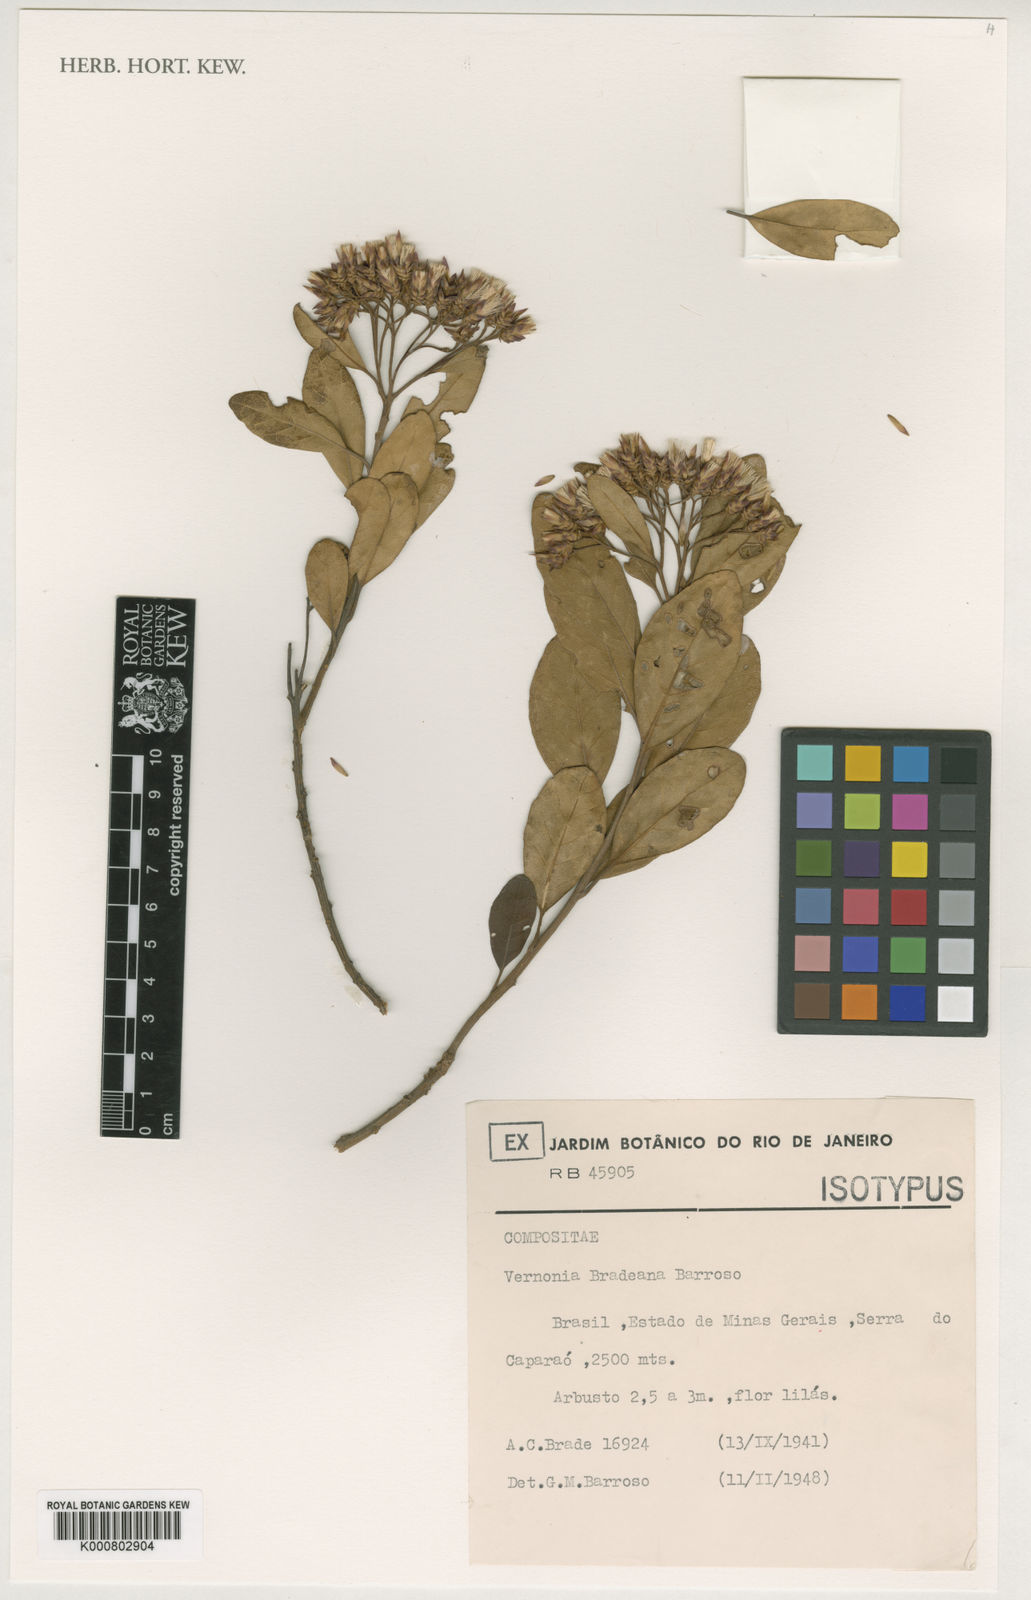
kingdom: Plantae
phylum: Tracheophyta
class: Magnoliopsida
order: Asterales
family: Asteraceae
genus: Critoniopsis
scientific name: Critoniopsis bradeana
